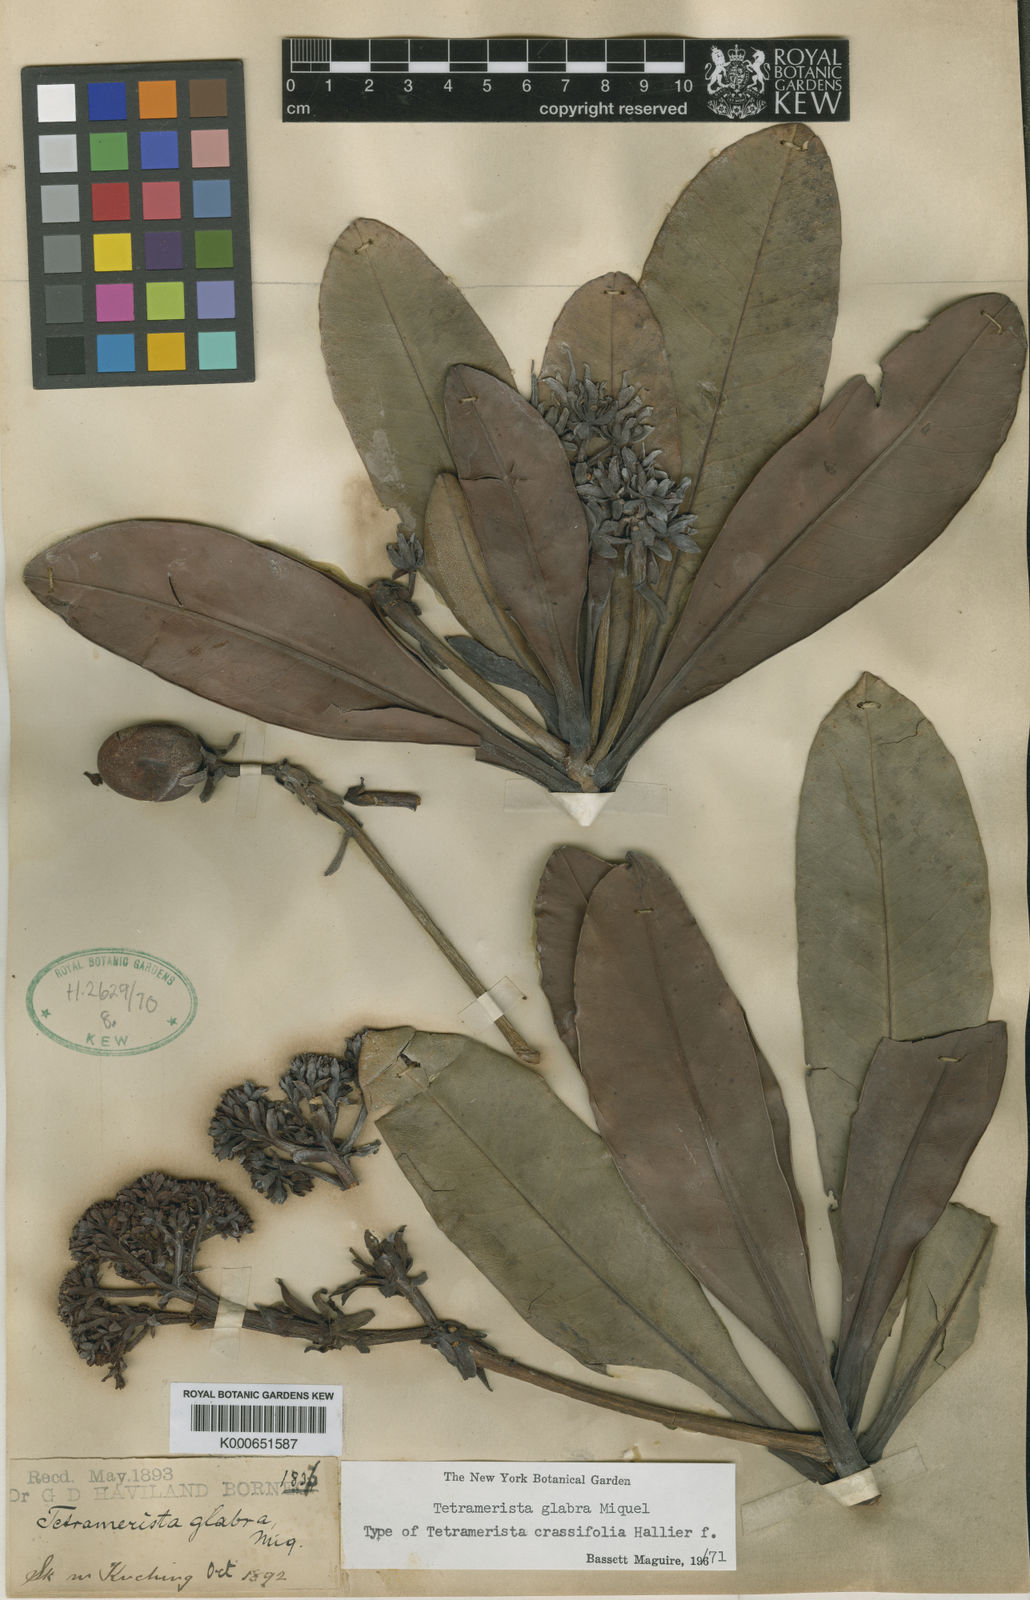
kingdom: Plantae
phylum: Tracheophyta
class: Magnoliopsida
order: Ericales
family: Tetrameristaceae
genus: Tetramerista
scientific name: Tetramerista glabra
